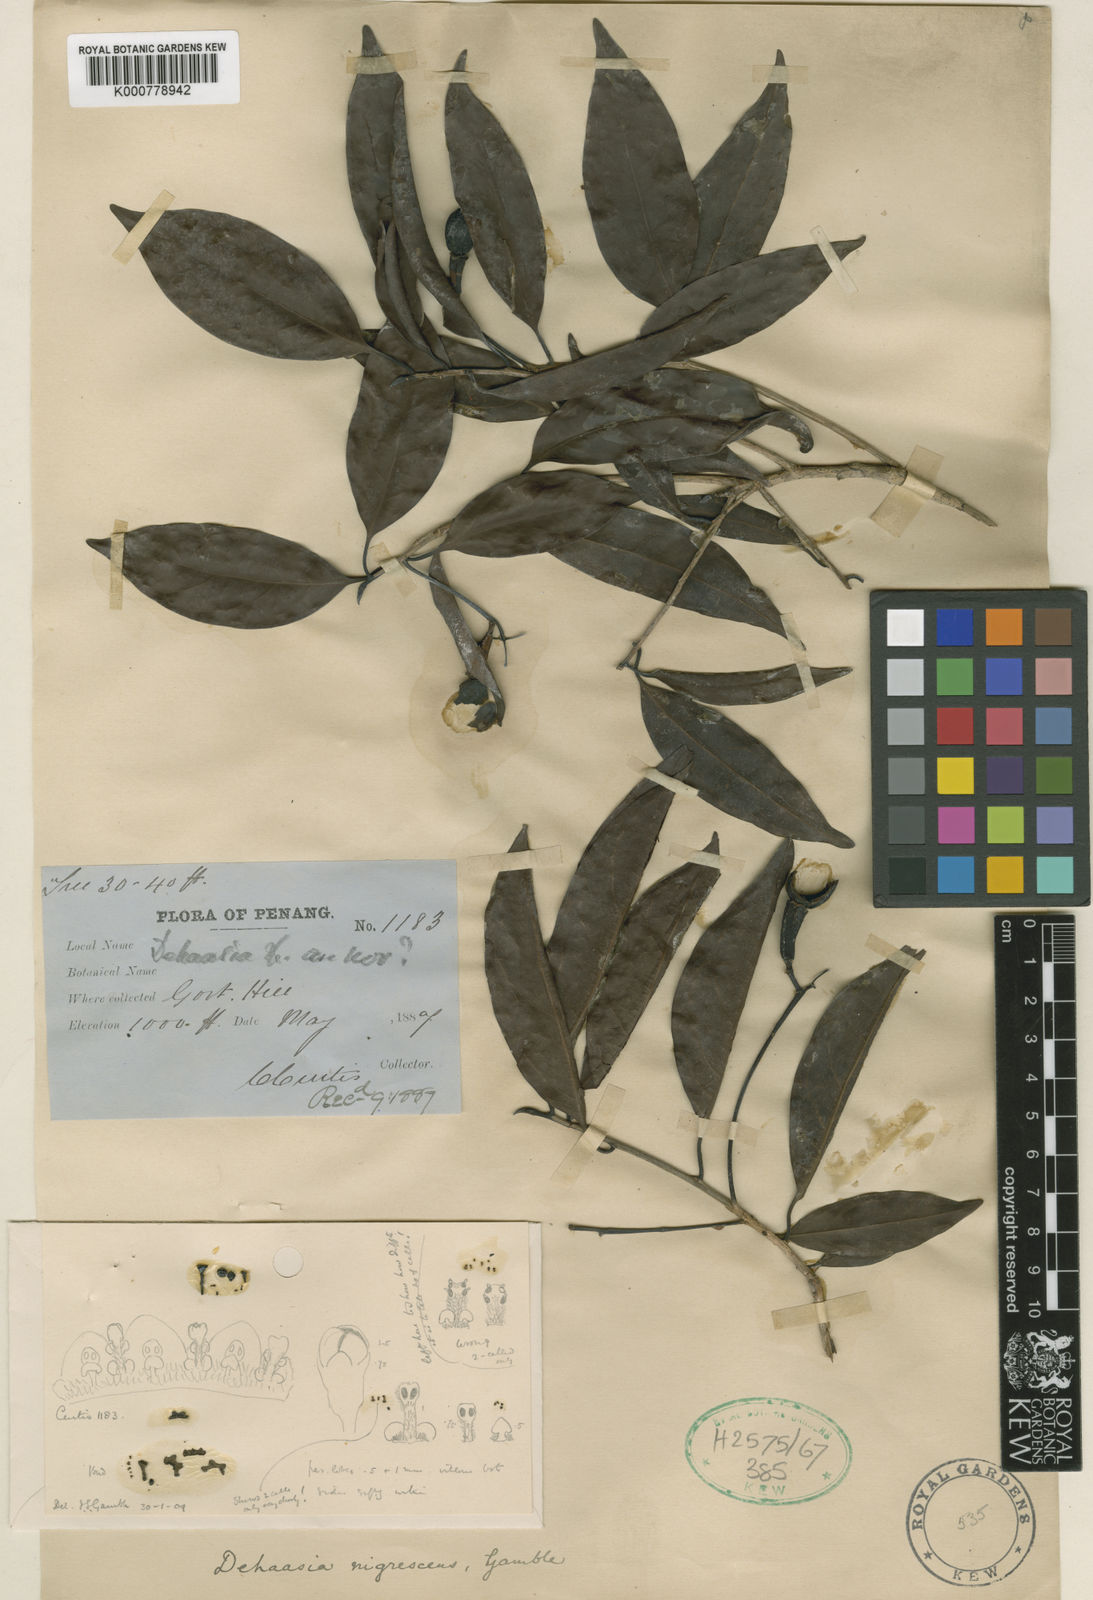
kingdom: Plantae
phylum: Tracheophyta
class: Magnoliopsida
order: Laurales
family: Lauraceae
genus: Alseodaphne
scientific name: Alseodaphne nigrescens
